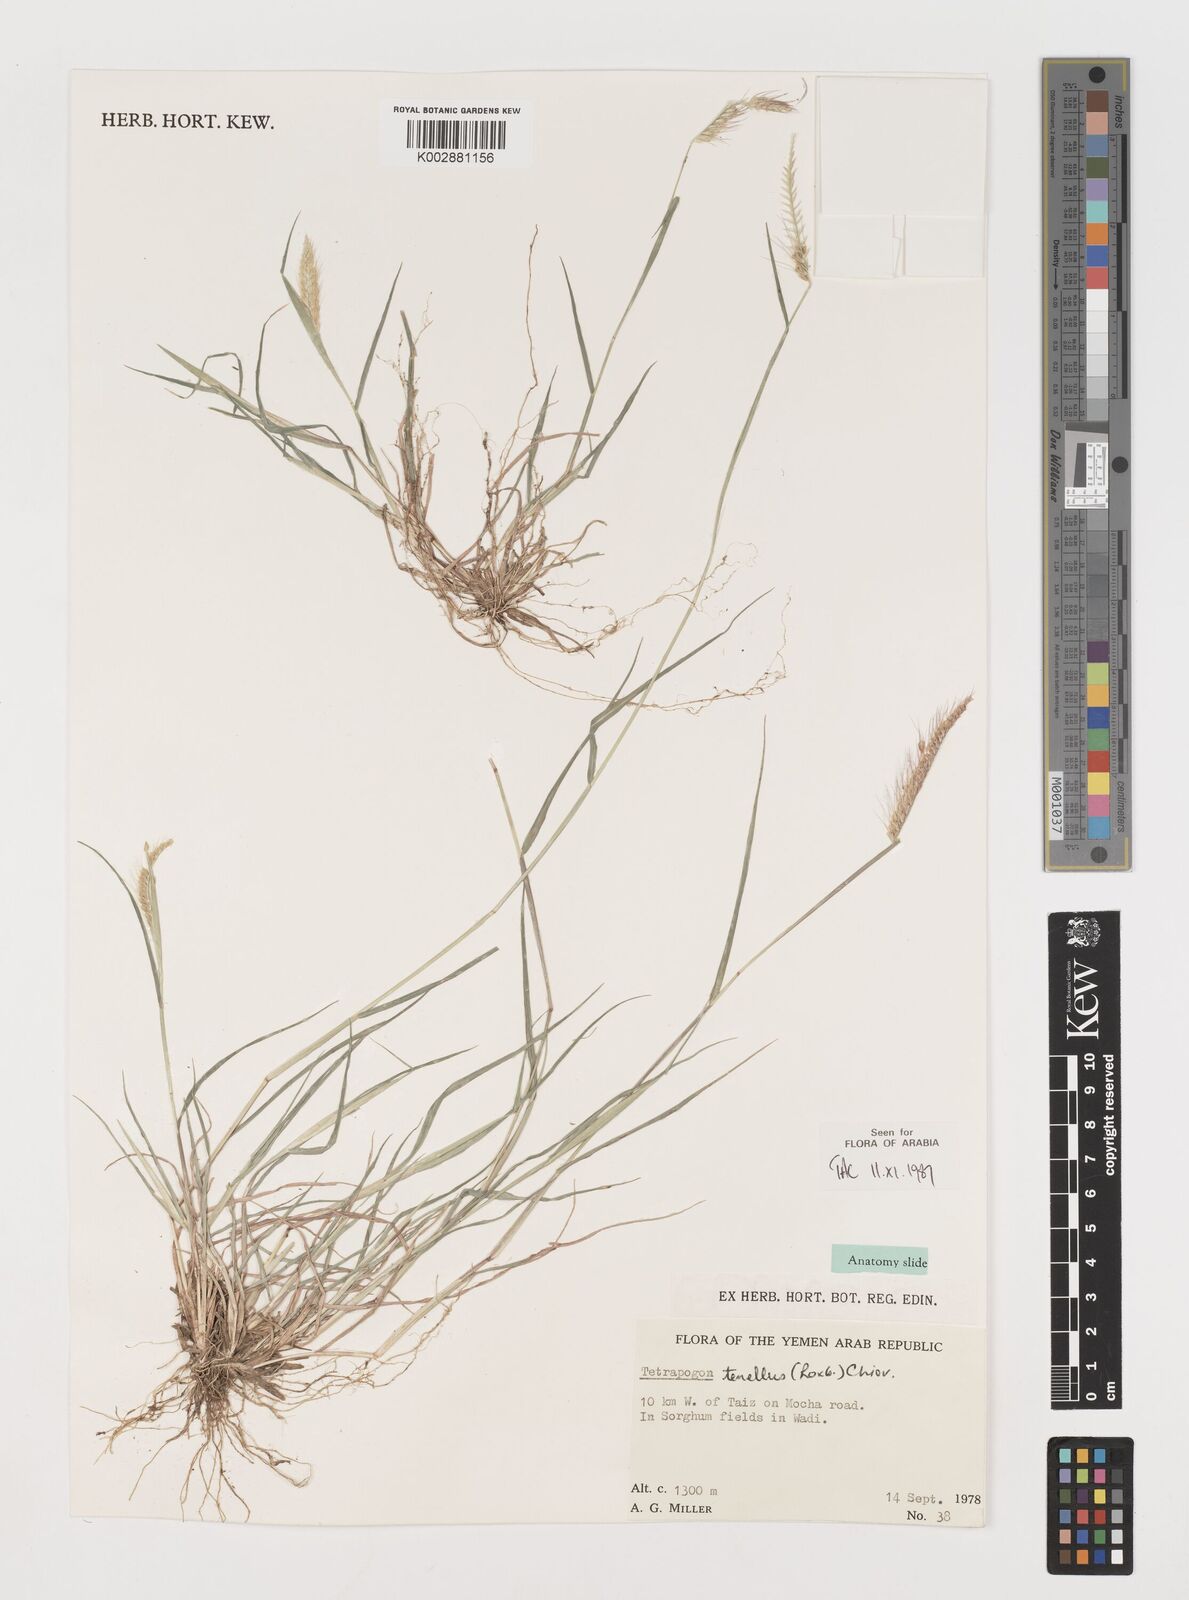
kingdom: Plantae
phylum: Tracheophyta
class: Liliopsida
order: Poales
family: Poaceae
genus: Tetrapogon
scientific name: Tetrapogon tenellus
